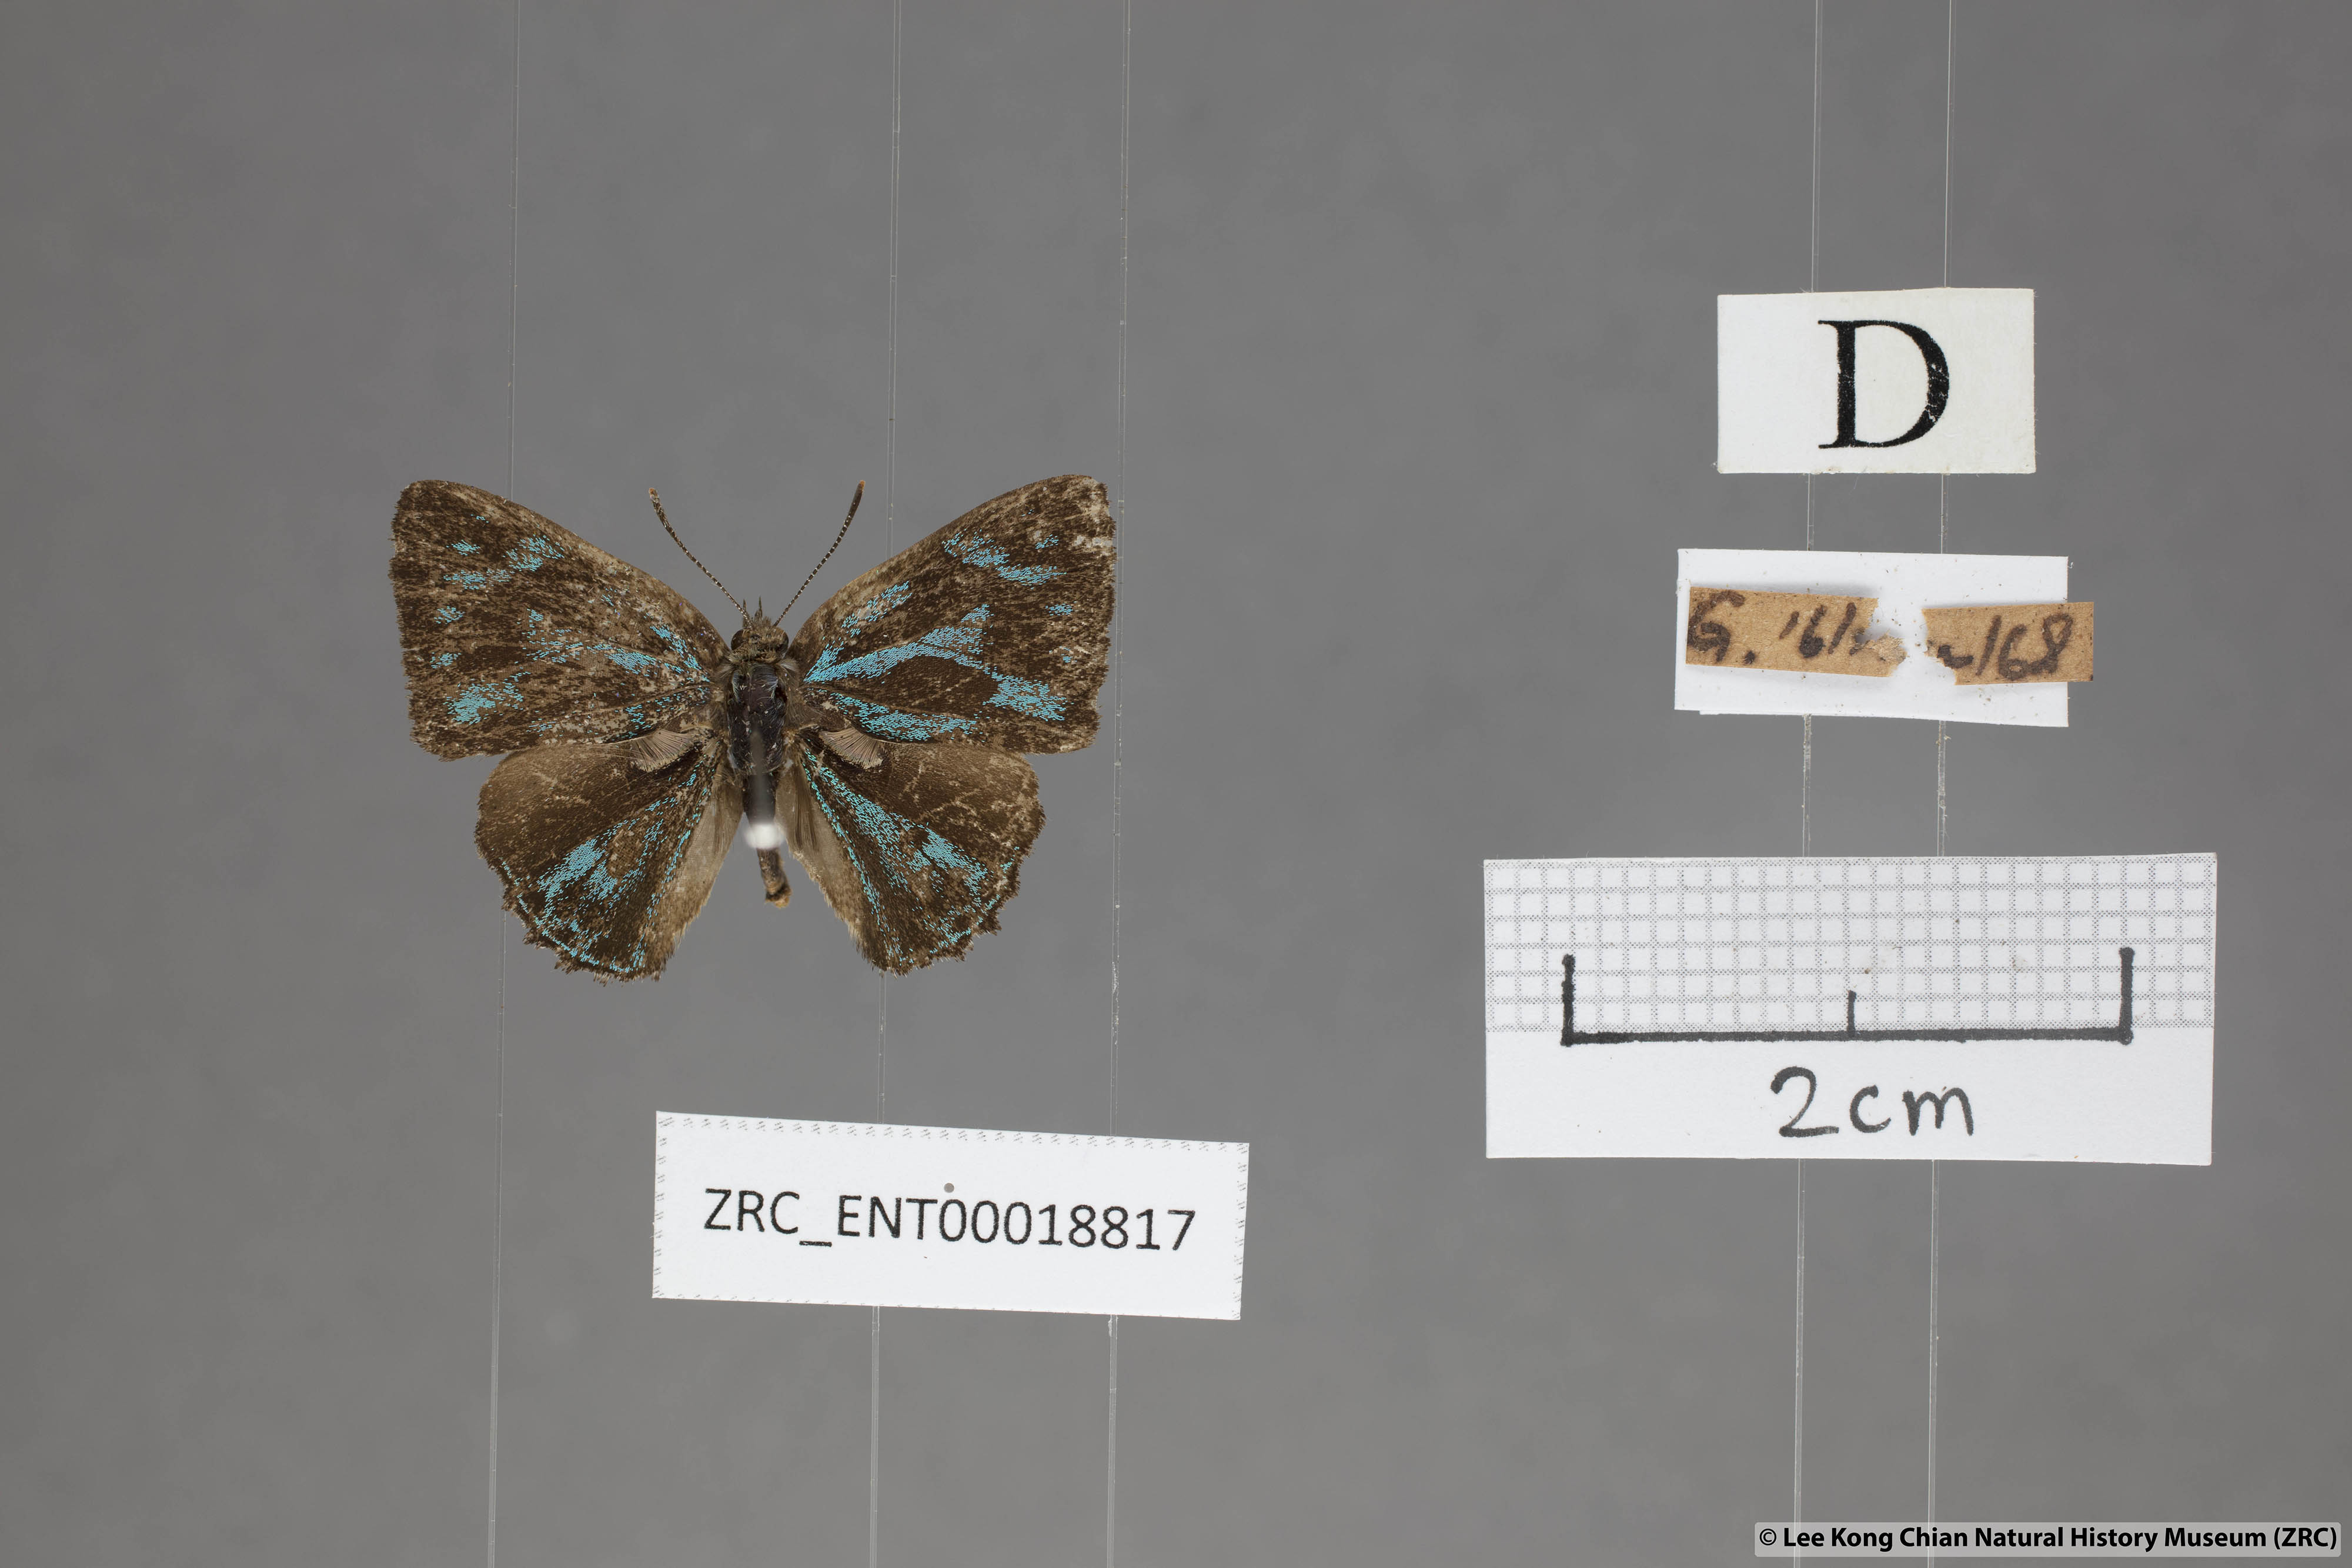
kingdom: Animalia
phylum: Arthropoda
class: Insecta
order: Lepidoptera
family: Lycaenidae
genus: Poritia
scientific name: Poritia philota
